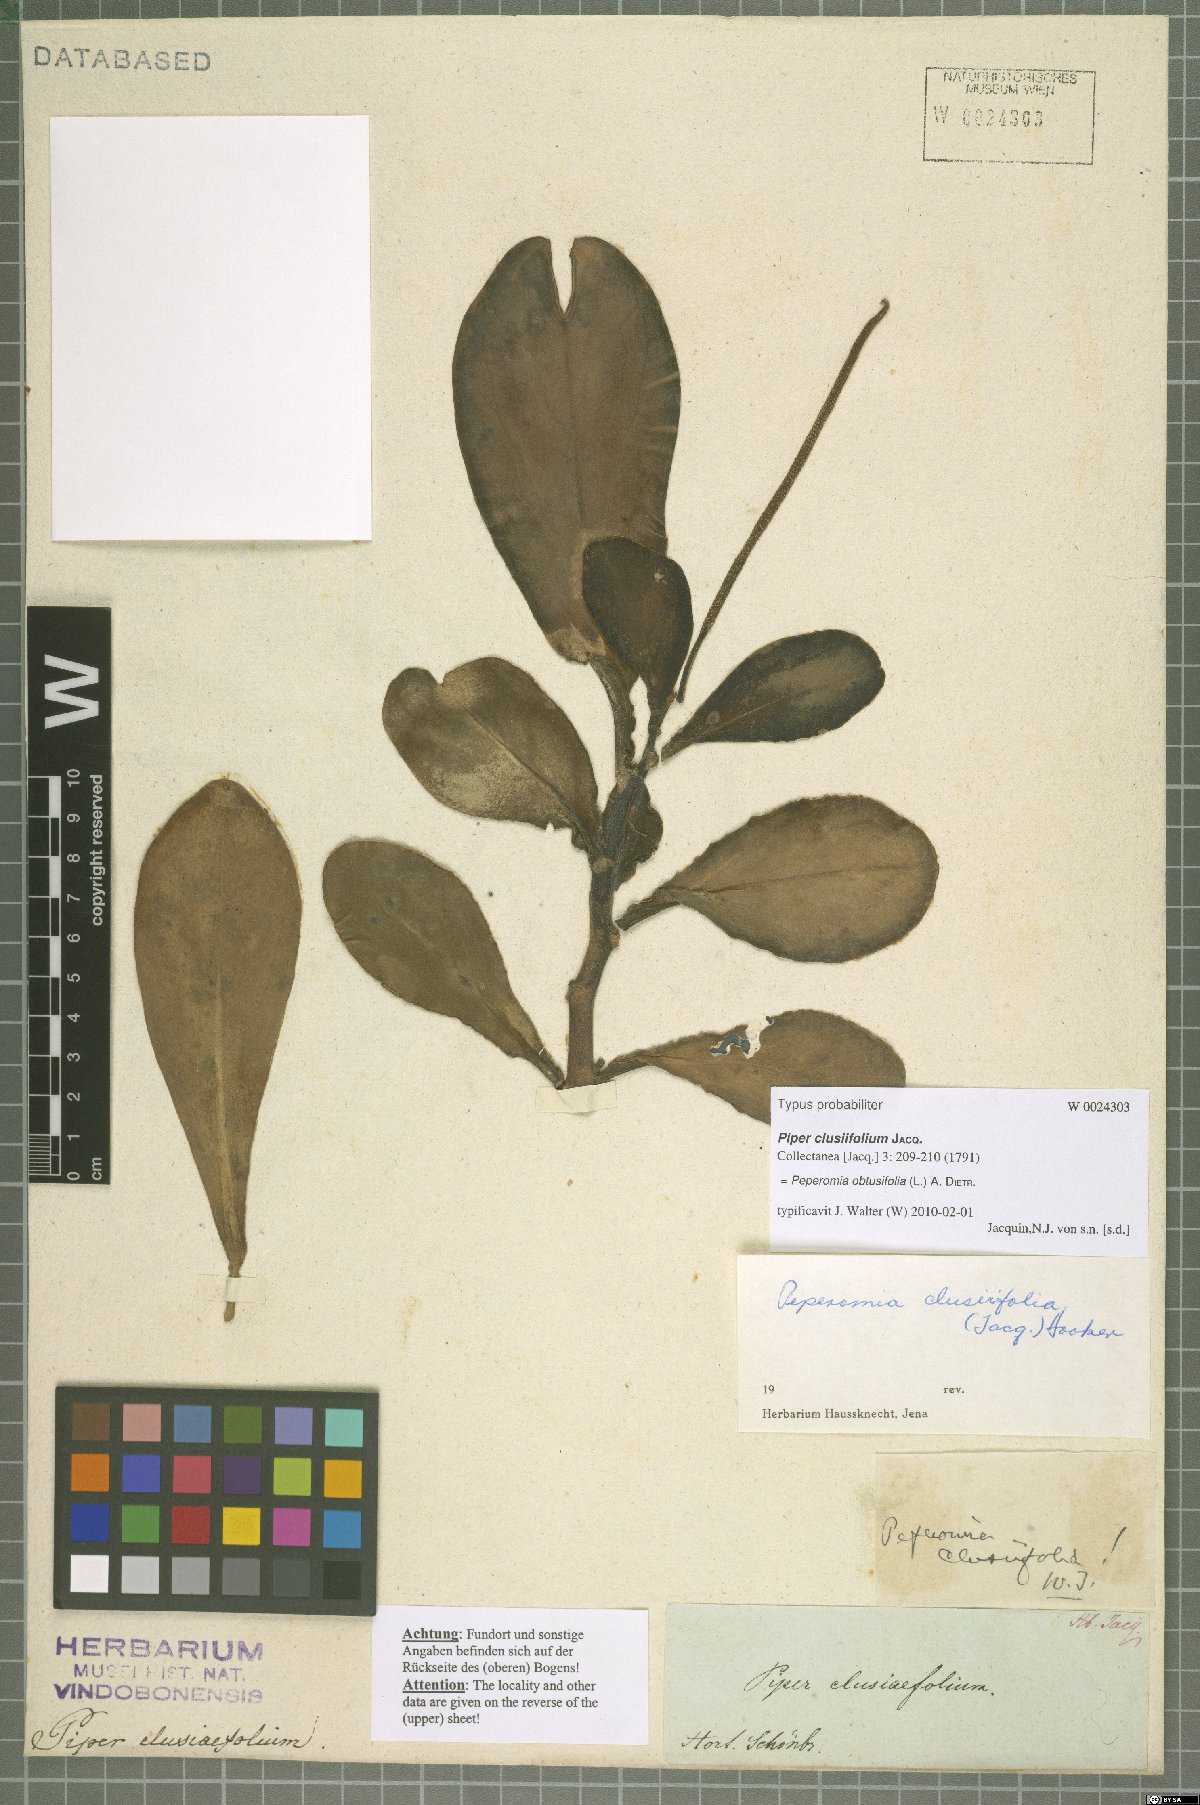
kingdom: Plantae
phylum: Tracheophyta
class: Magnoliopsida
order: Piperales
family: Piperaceae
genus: Peperomia
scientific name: Peperomia obtusifolia
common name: Baby rubberplant
